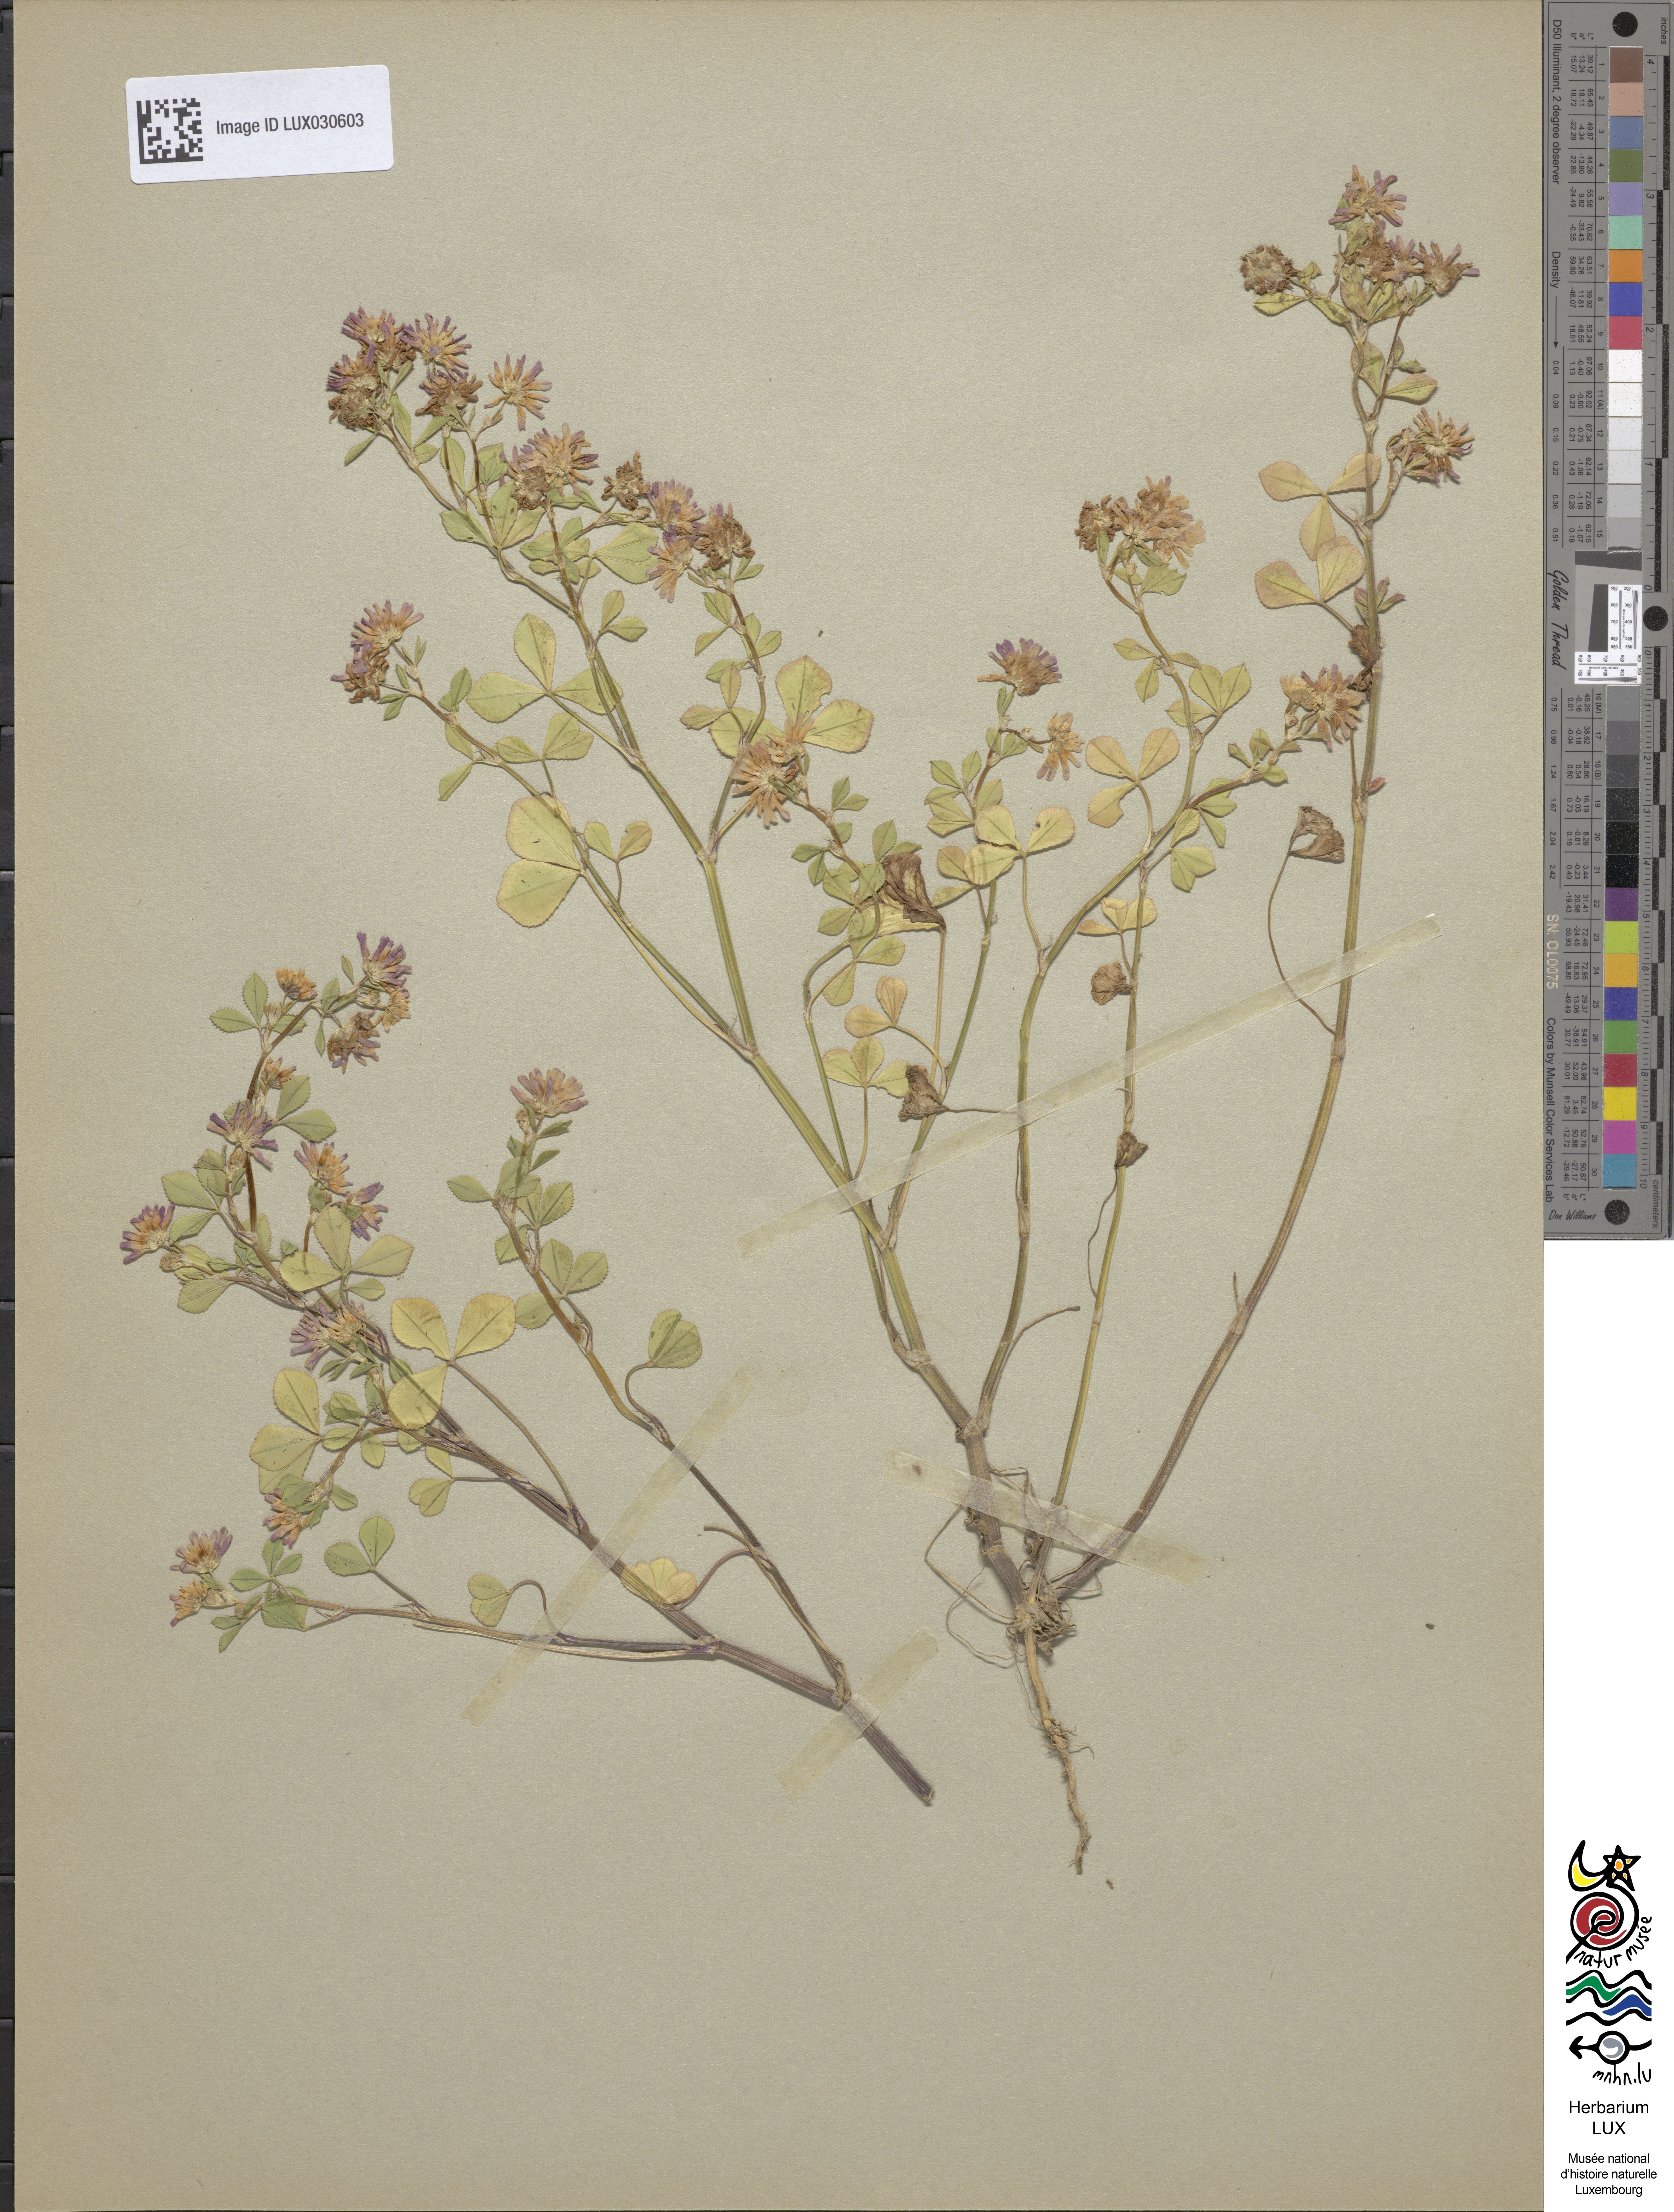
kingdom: Plantae
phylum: Tracheophyta
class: Magnoliopsida
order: Fabales
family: Fabaceae
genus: Trifolium
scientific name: Trifolium resupinatum
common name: Reversed clover
